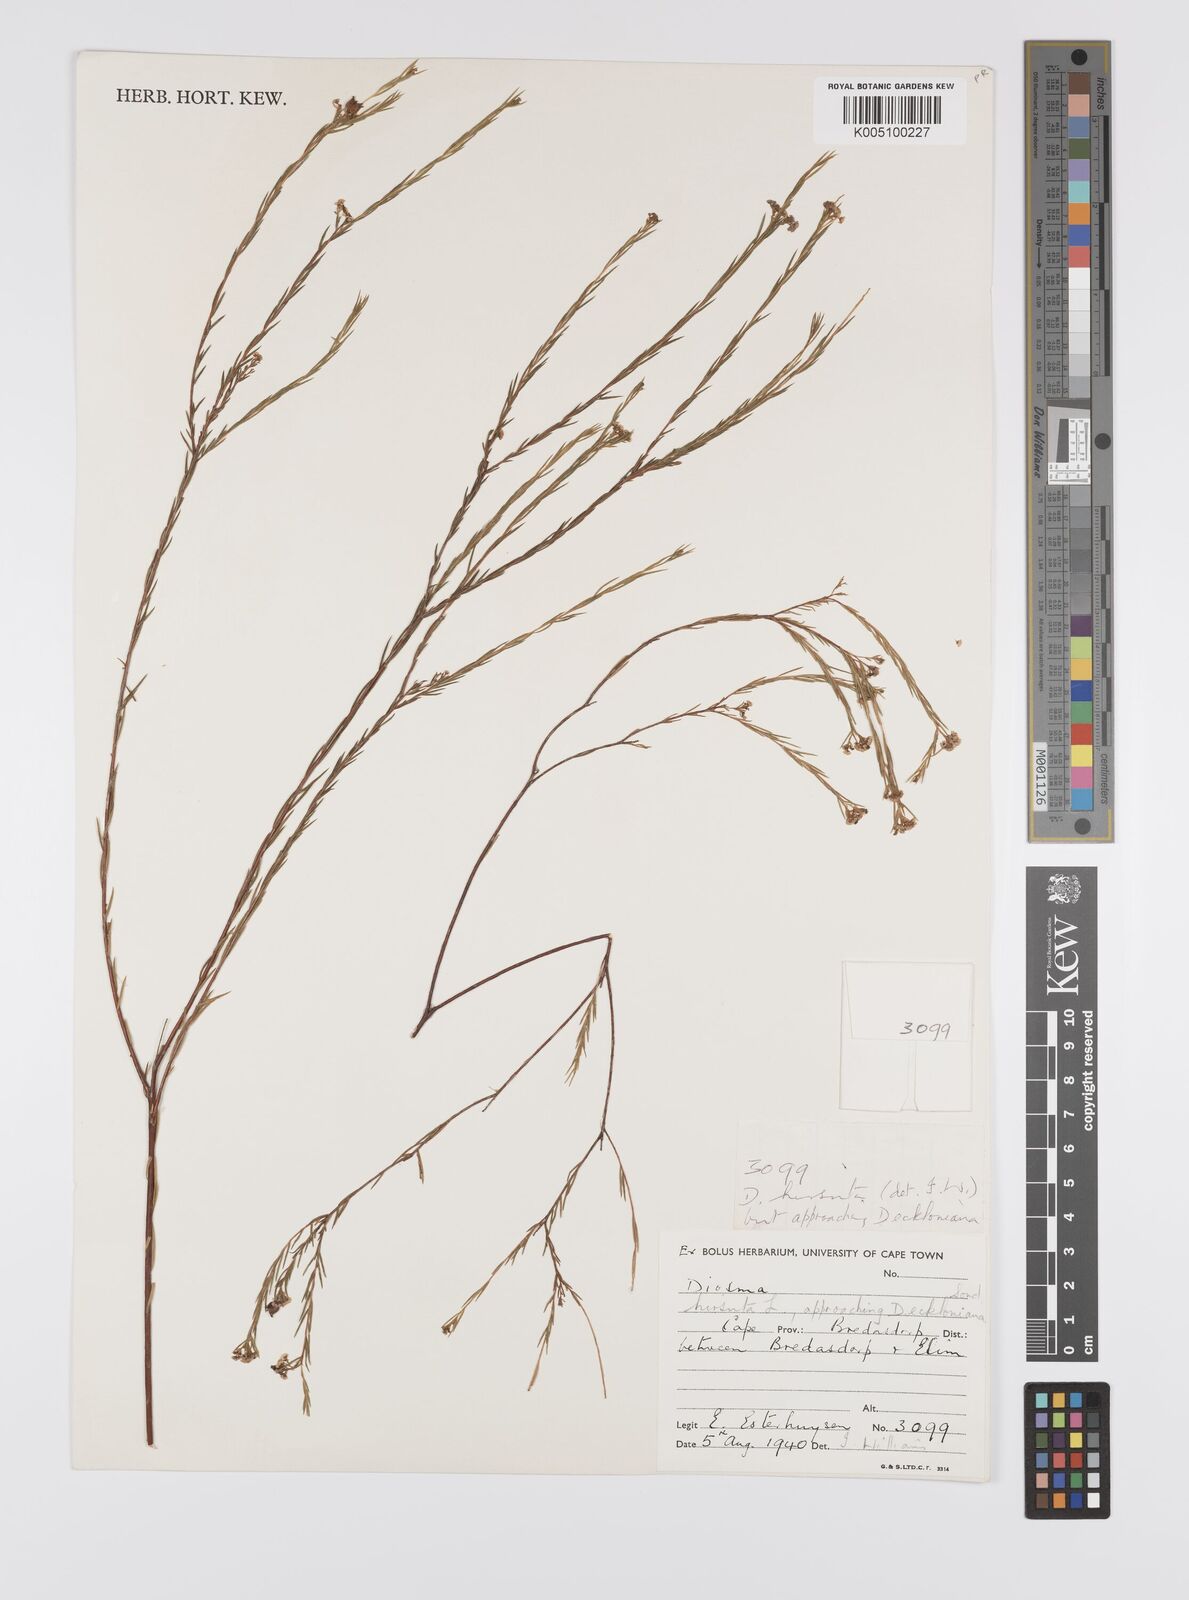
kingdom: Plantae
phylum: Tracheophyta
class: Magnoliopsida
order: Sapindales
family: Rutaceae
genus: Diosma
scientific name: Diosma hirsuta
